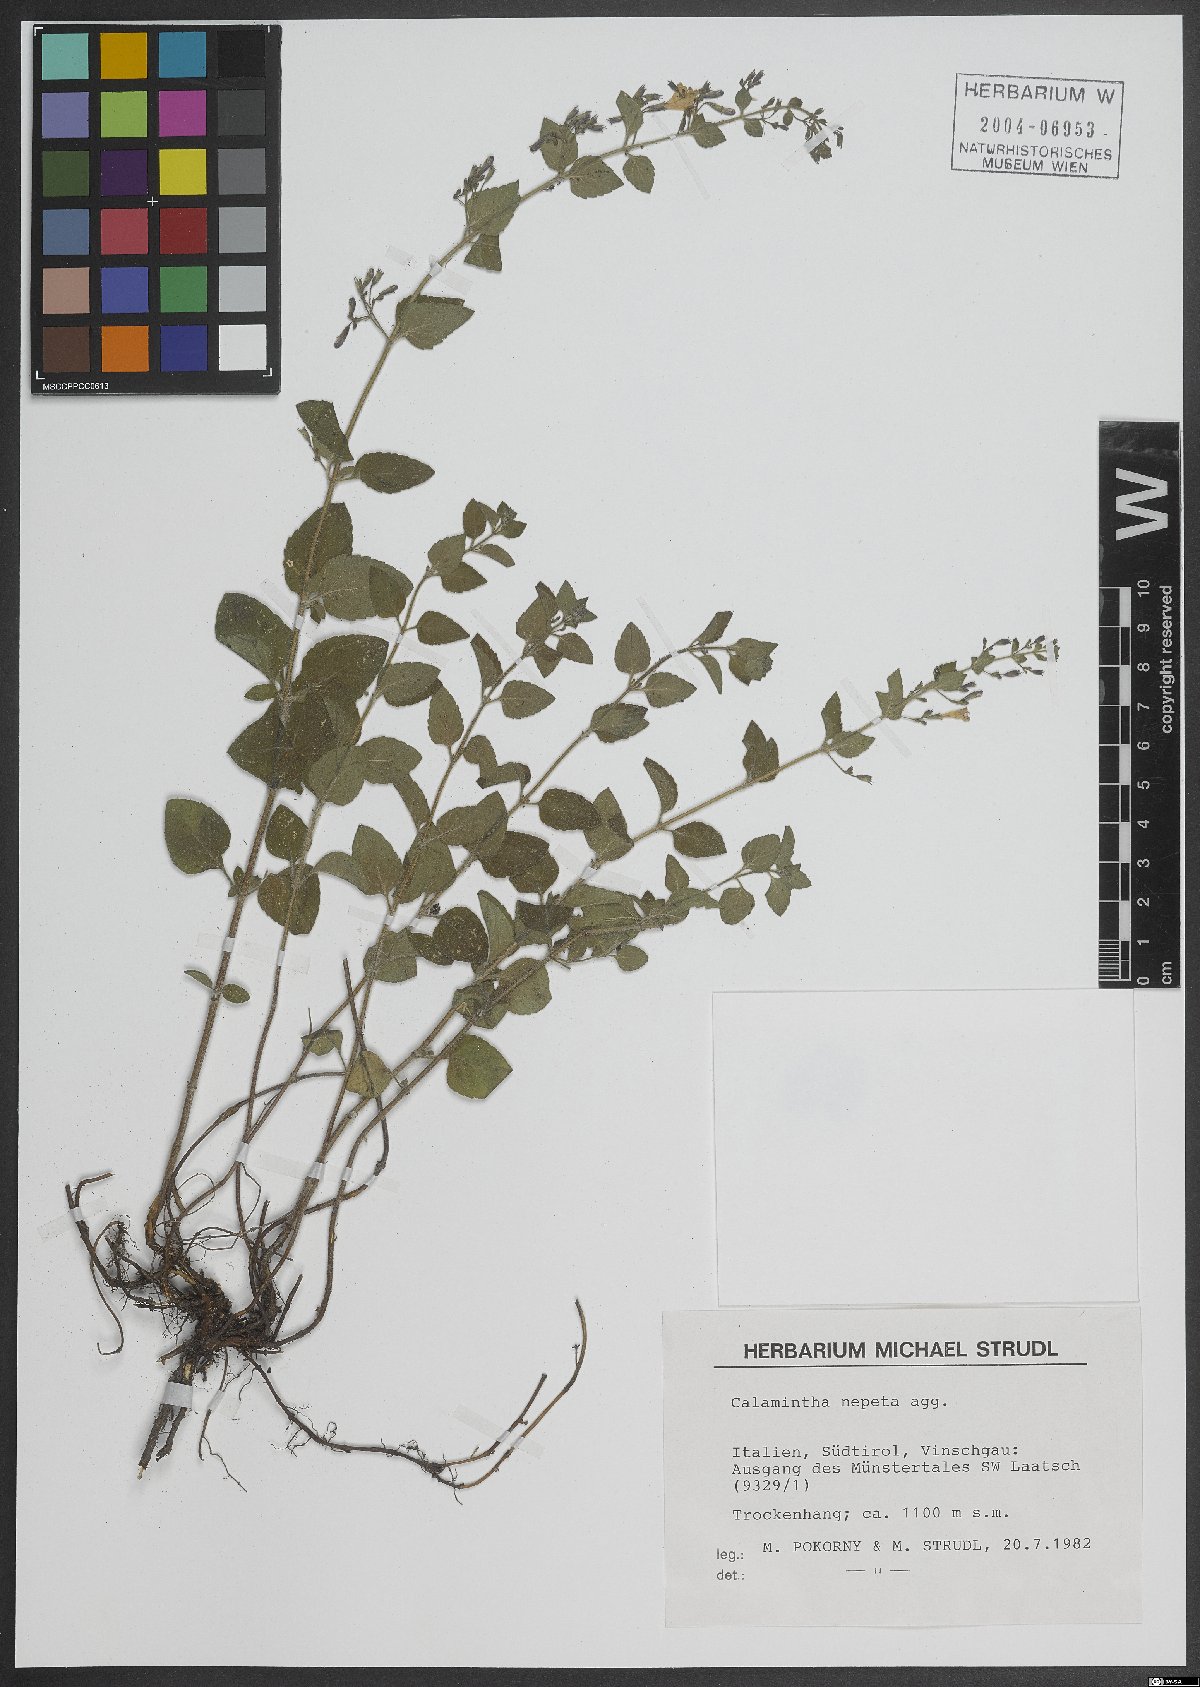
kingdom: Plantae
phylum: Tracheophyta
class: Magnoliopsida
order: Lamiales
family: Lamiaceae
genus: Clinopodium
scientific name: Clinopodium nepeta
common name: Lesser calamint
